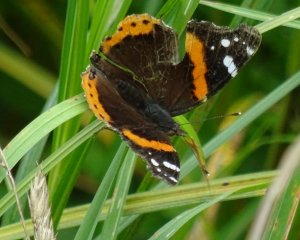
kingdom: Animalia
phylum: Arthropoda
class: Insecta
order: Lepidoptera
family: Nymphalidae
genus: Vanessa
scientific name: Vanessa atalanta
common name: Red Admiral
